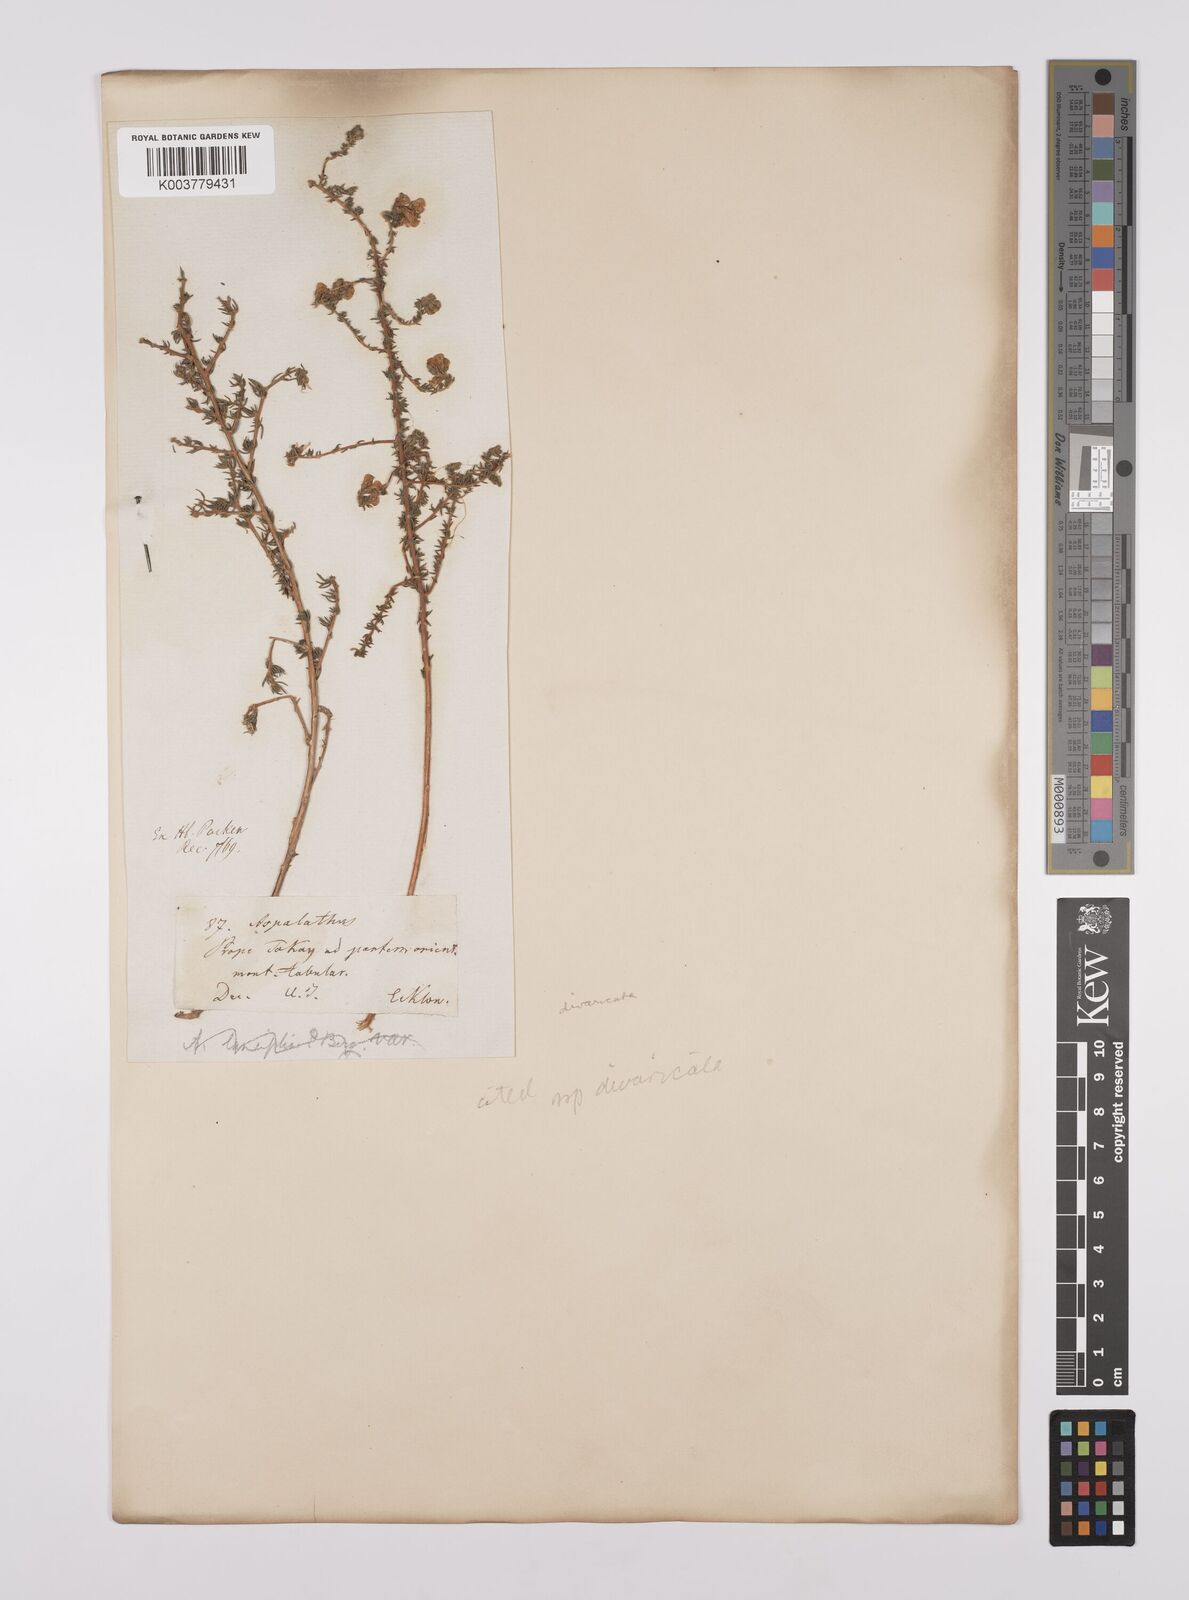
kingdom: Plantae
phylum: Tracheophyta
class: Magnoliopsida
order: Fabales
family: Fabaceae
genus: Aspalathus
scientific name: Aspalathus divaricata
